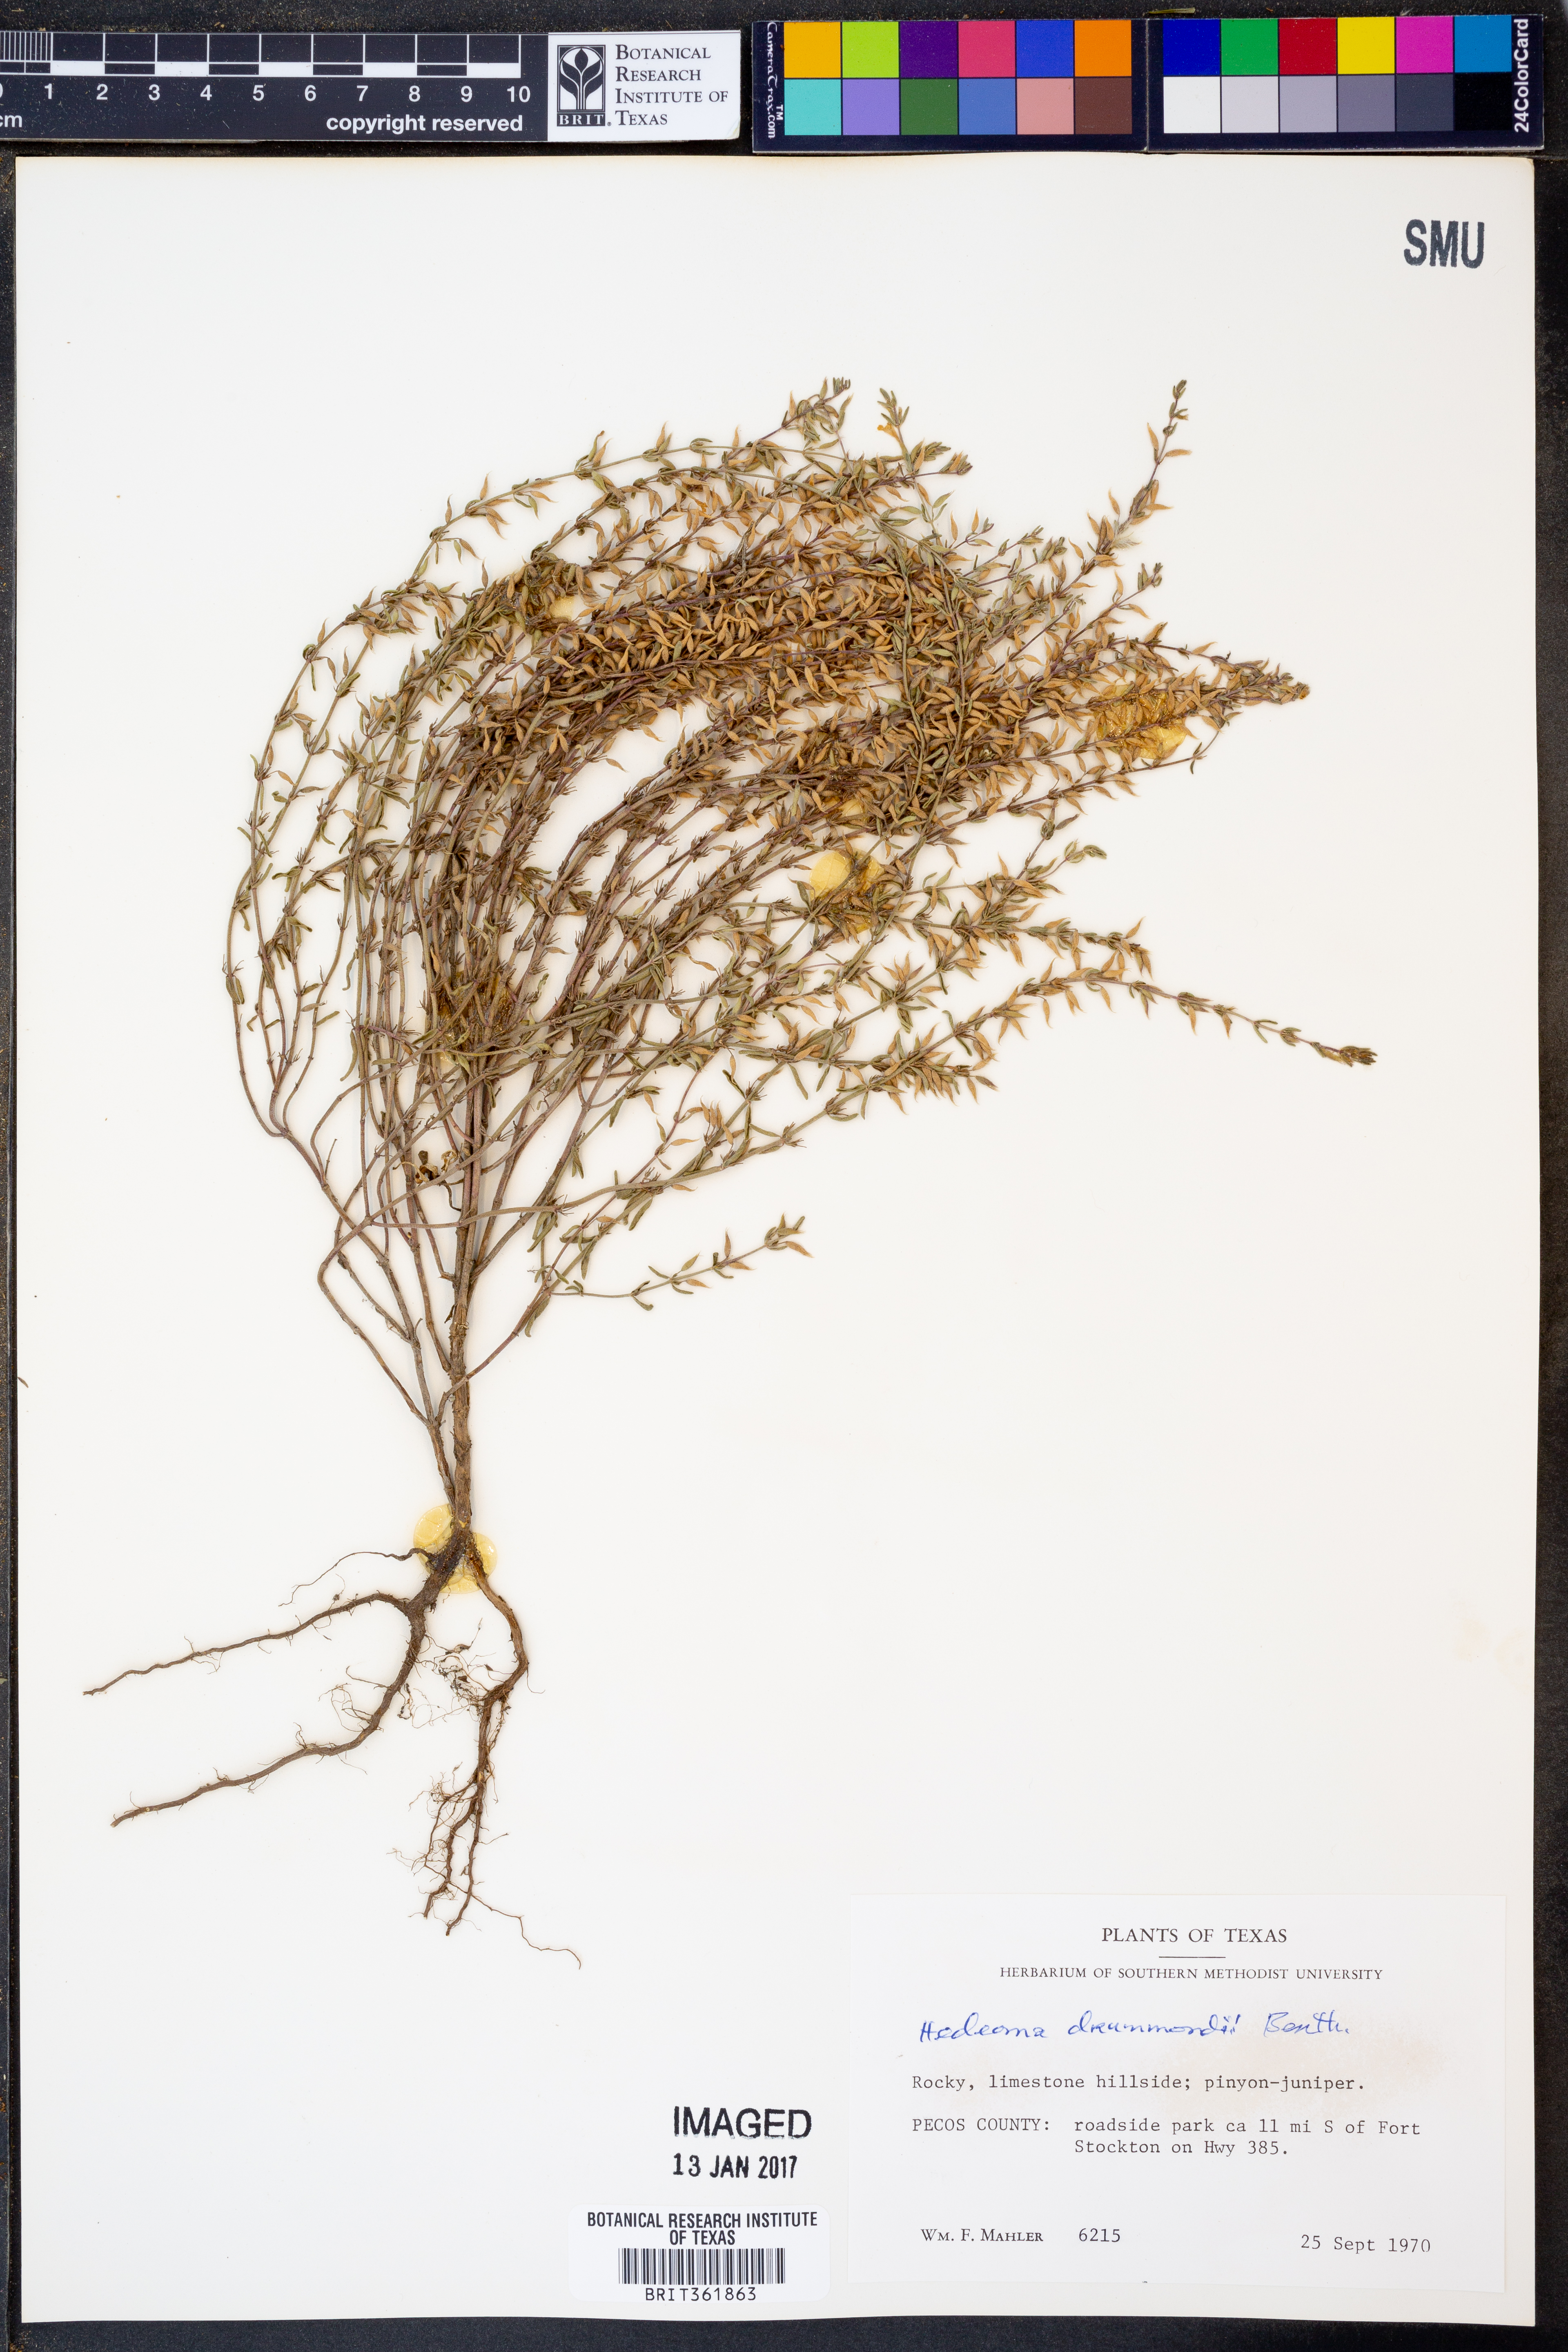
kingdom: Plantae
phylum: Tracheophyta
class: Magnoliopsida
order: Lamiales
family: Lamiaceae
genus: Hedeoma
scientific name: Hedeoma drummondii
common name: New mexico pennyroyal
